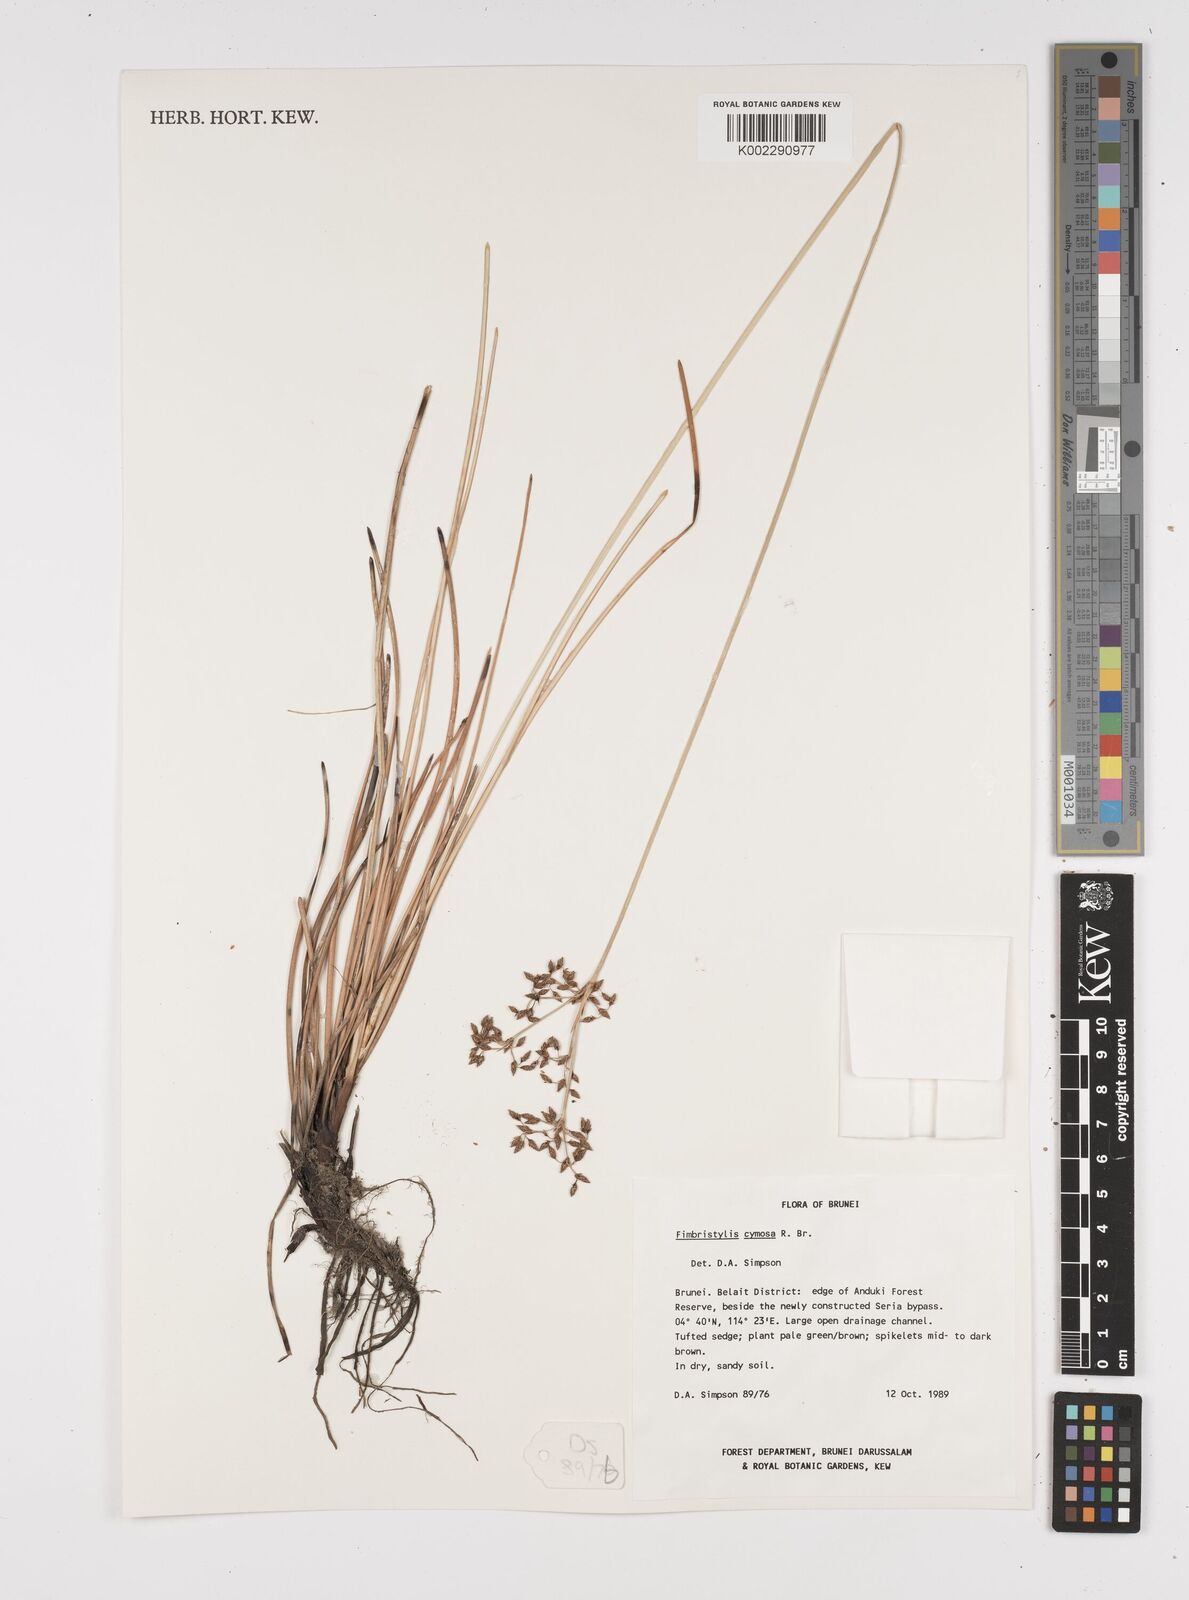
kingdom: Plantae
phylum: Tracheophyta
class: Liliopsida
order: Poales
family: Cyperaceae
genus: Fimbristylis
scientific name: Fimbristylis cymosa
